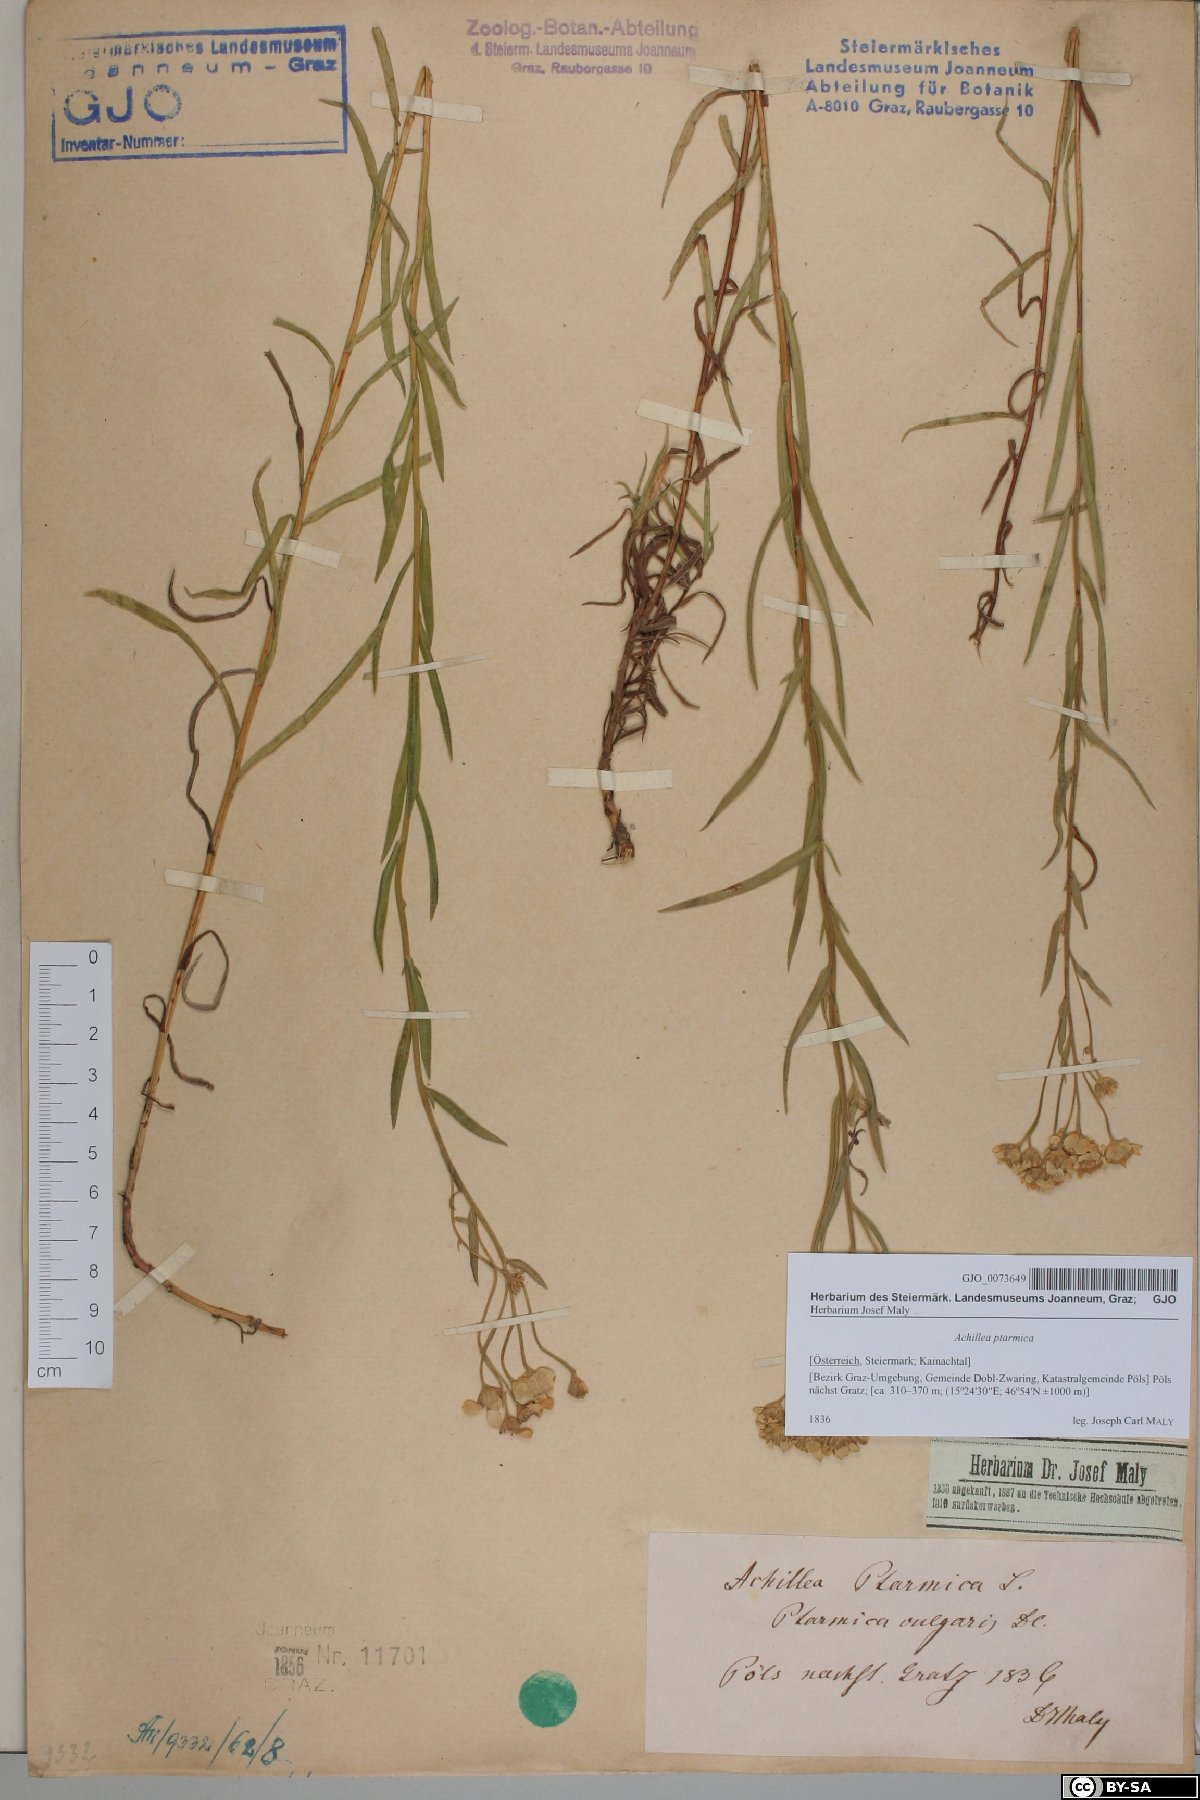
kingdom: Plantae
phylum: Tracheophyta
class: Magnoliopsida
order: Asterales
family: Asteraceae
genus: Achillea
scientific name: Achillea ptarmica
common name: Sneezeweed
